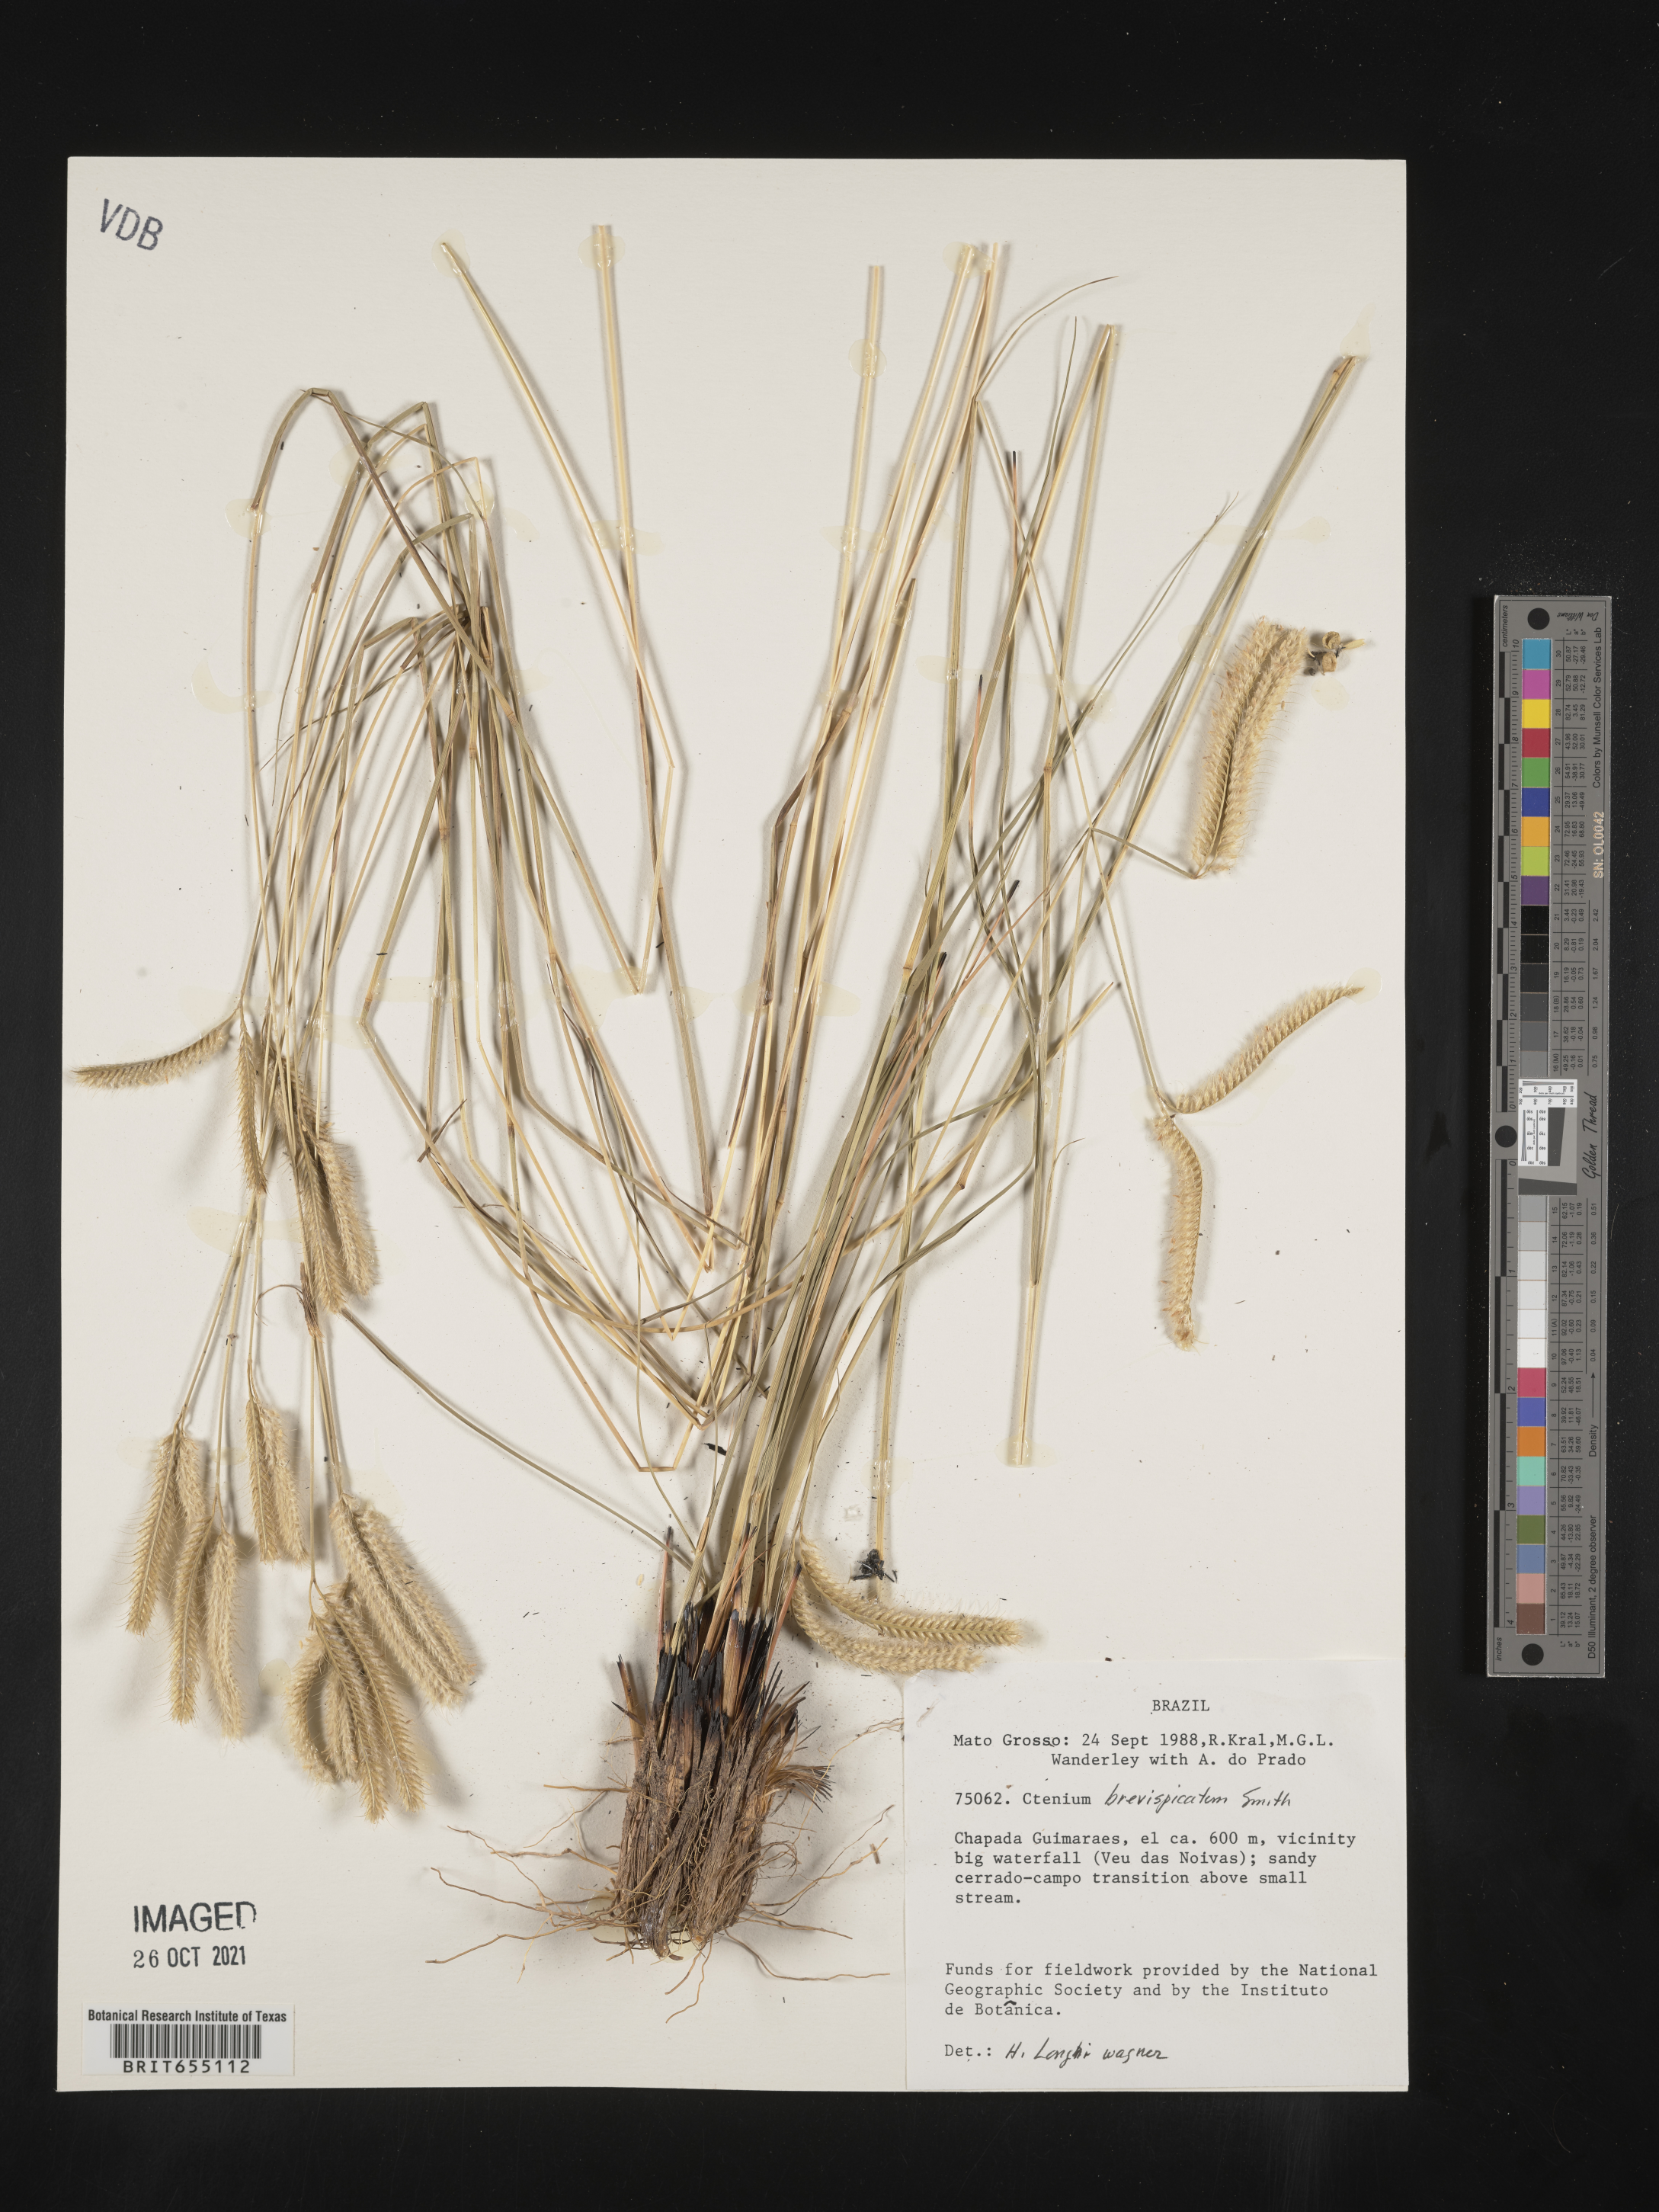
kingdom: Plantae
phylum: Tracheophyta
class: Liliopsida
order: Poales
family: Poaceae
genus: Ctenium
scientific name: Ctenium
